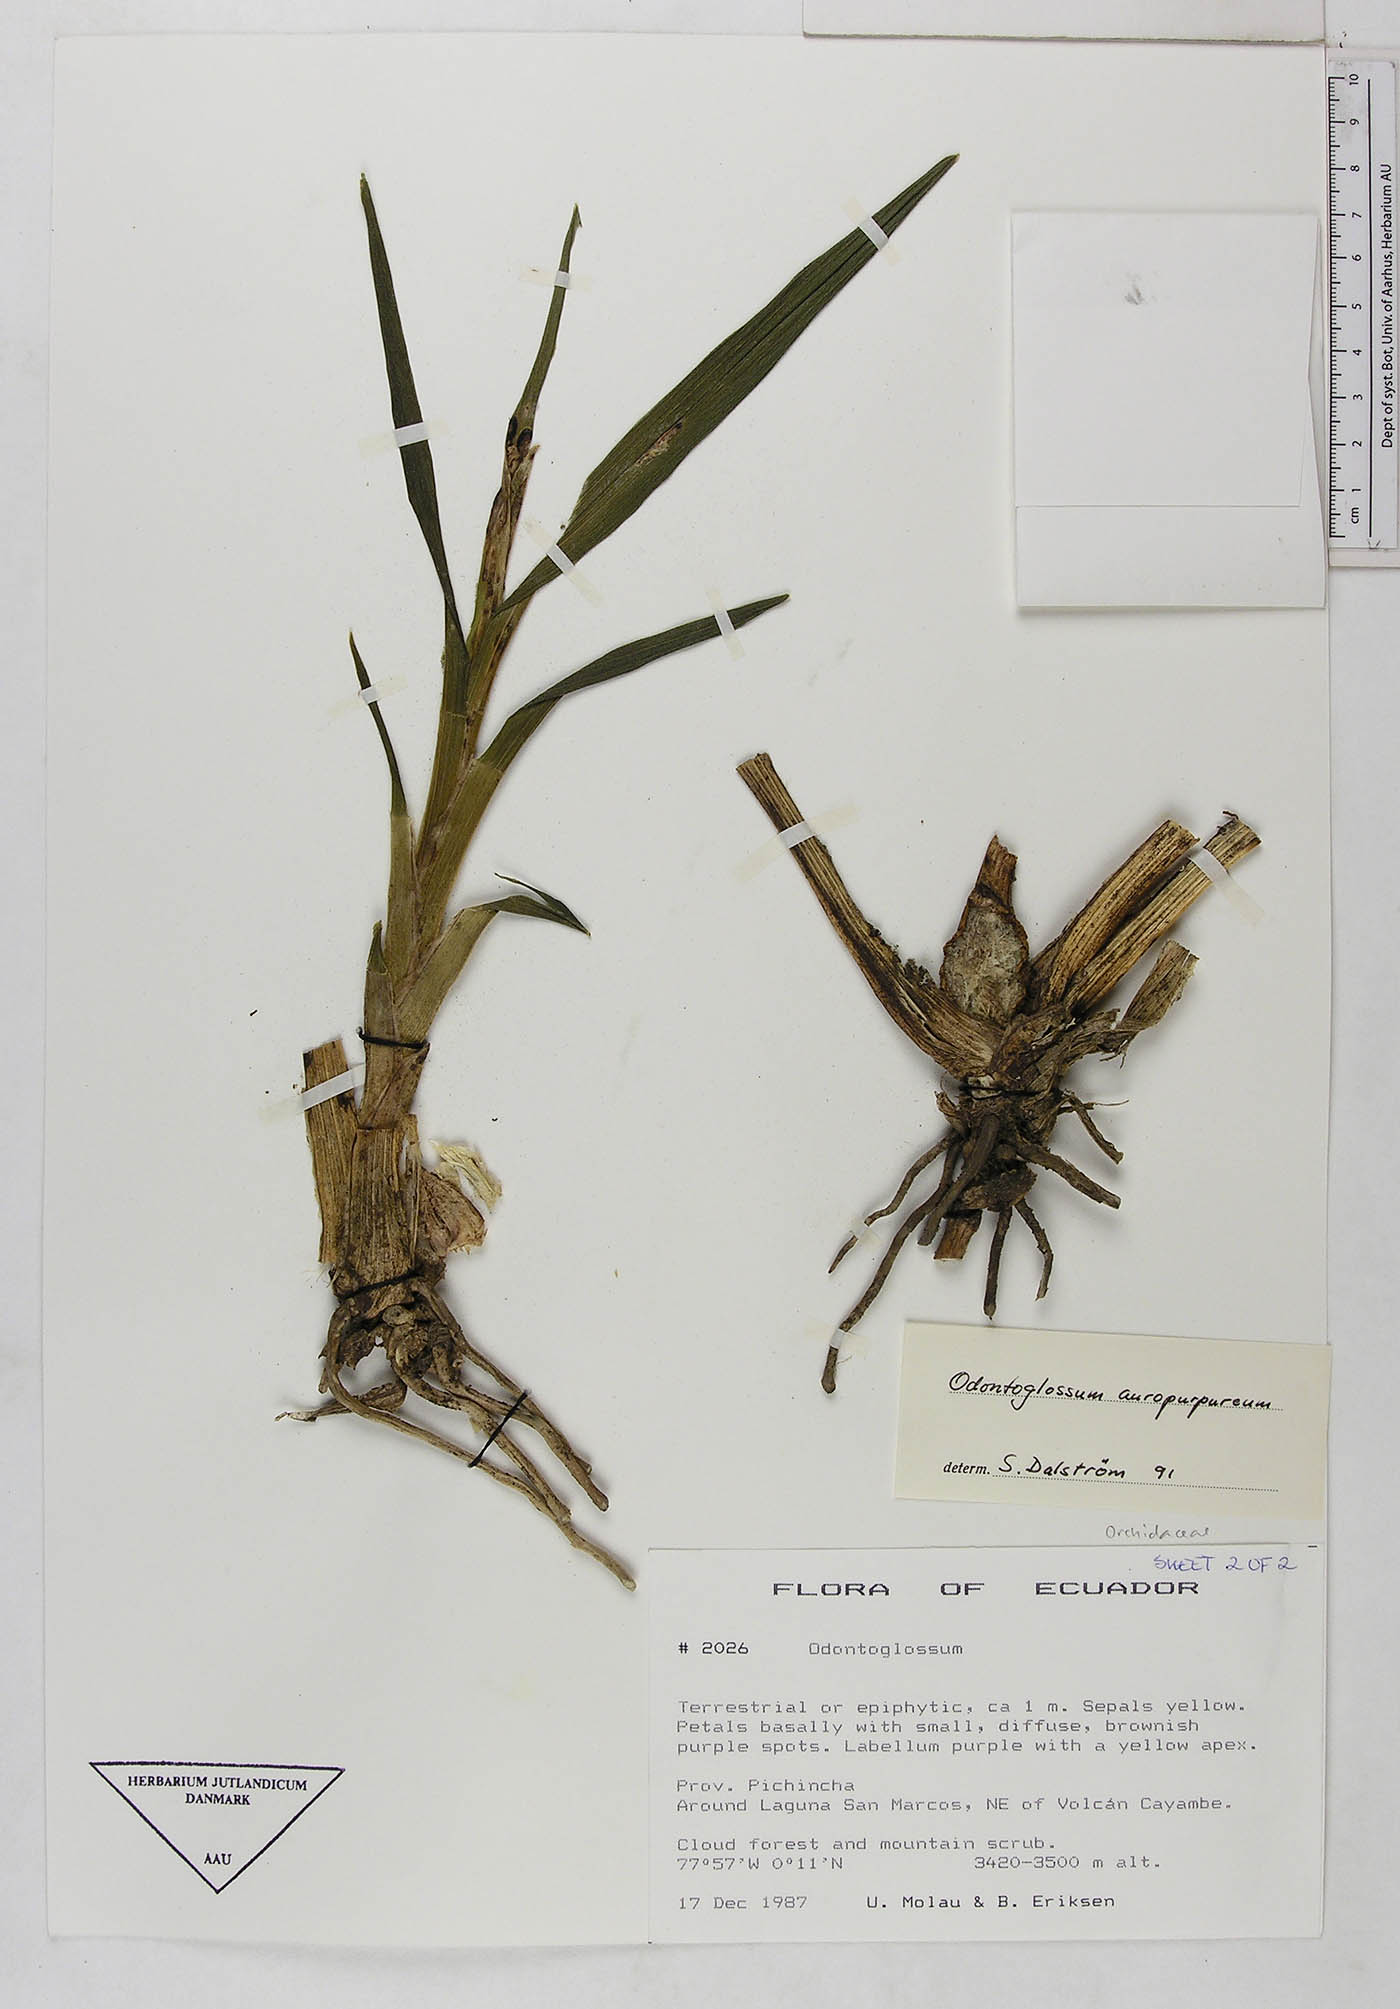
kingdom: Plantae
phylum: Tracheophyta
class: Liliopsida
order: Asparagales
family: Orchidaceae
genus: Cyrtochilum
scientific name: Cyrtochilum auropurpureum
